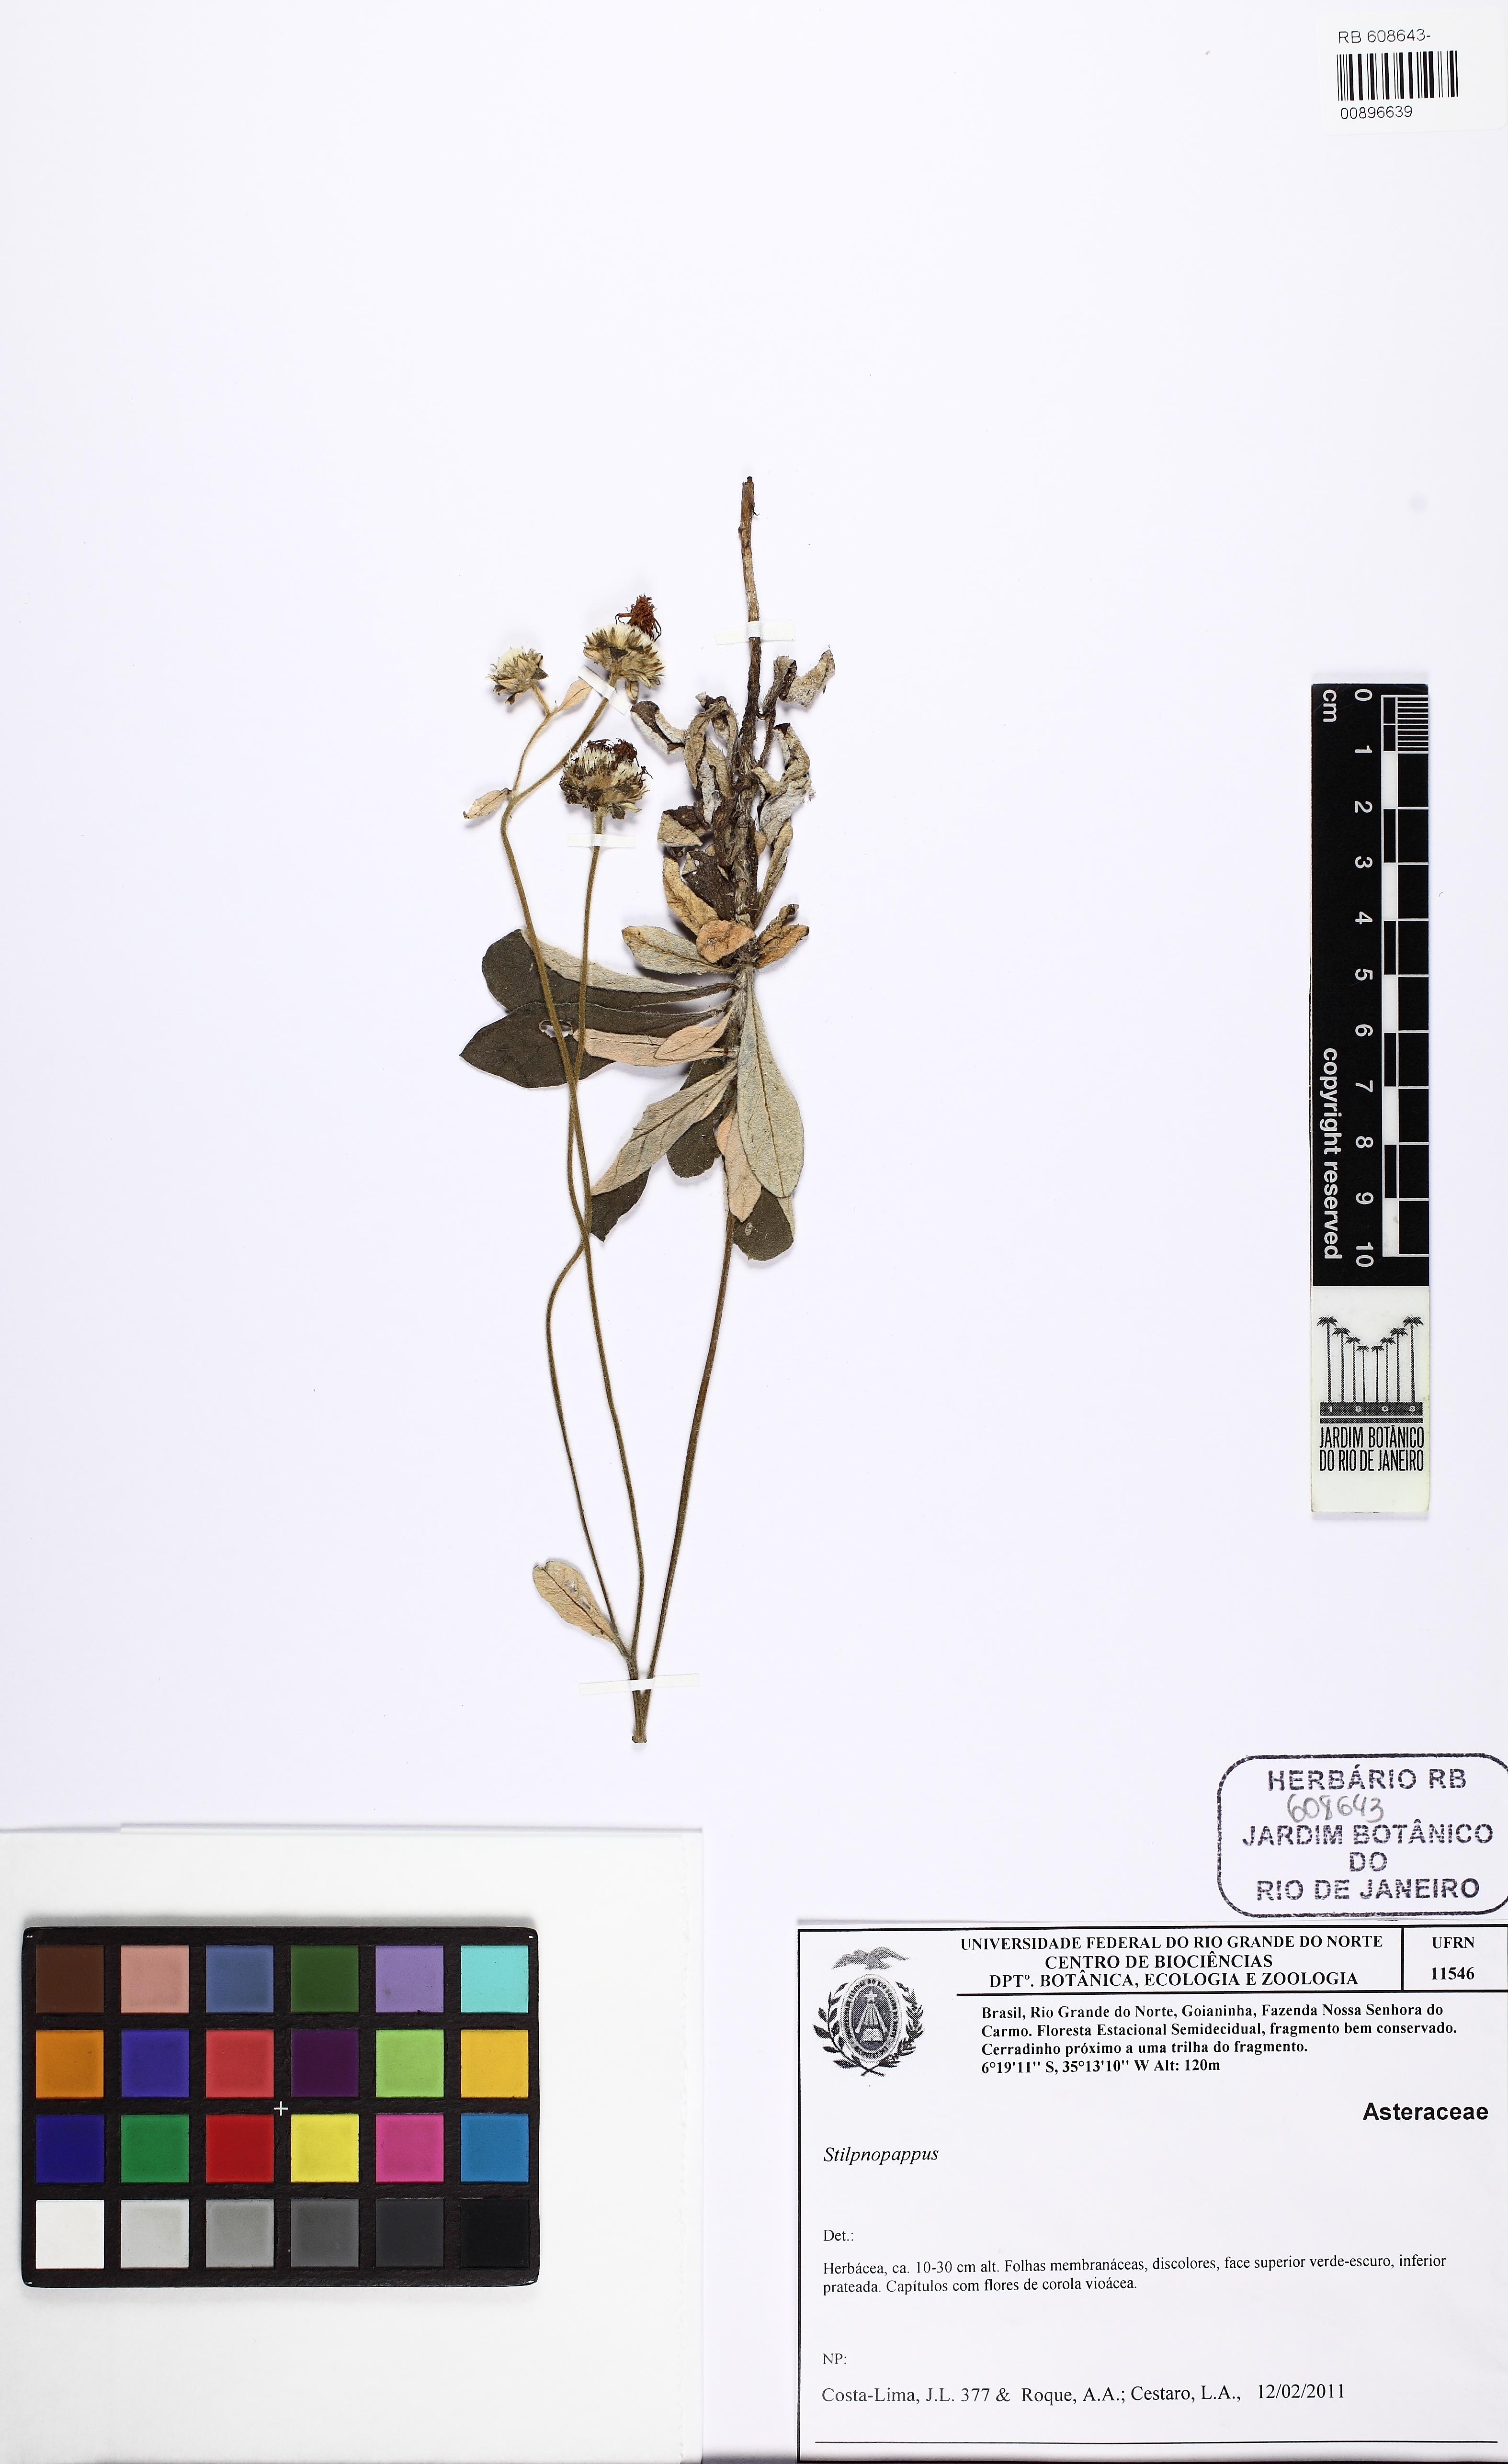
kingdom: Plantae
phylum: Tracheophyta
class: Magnoliopsida
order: Asterales
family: Asteraceae
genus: Stilpnopappus
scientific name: Stilpnopappus
